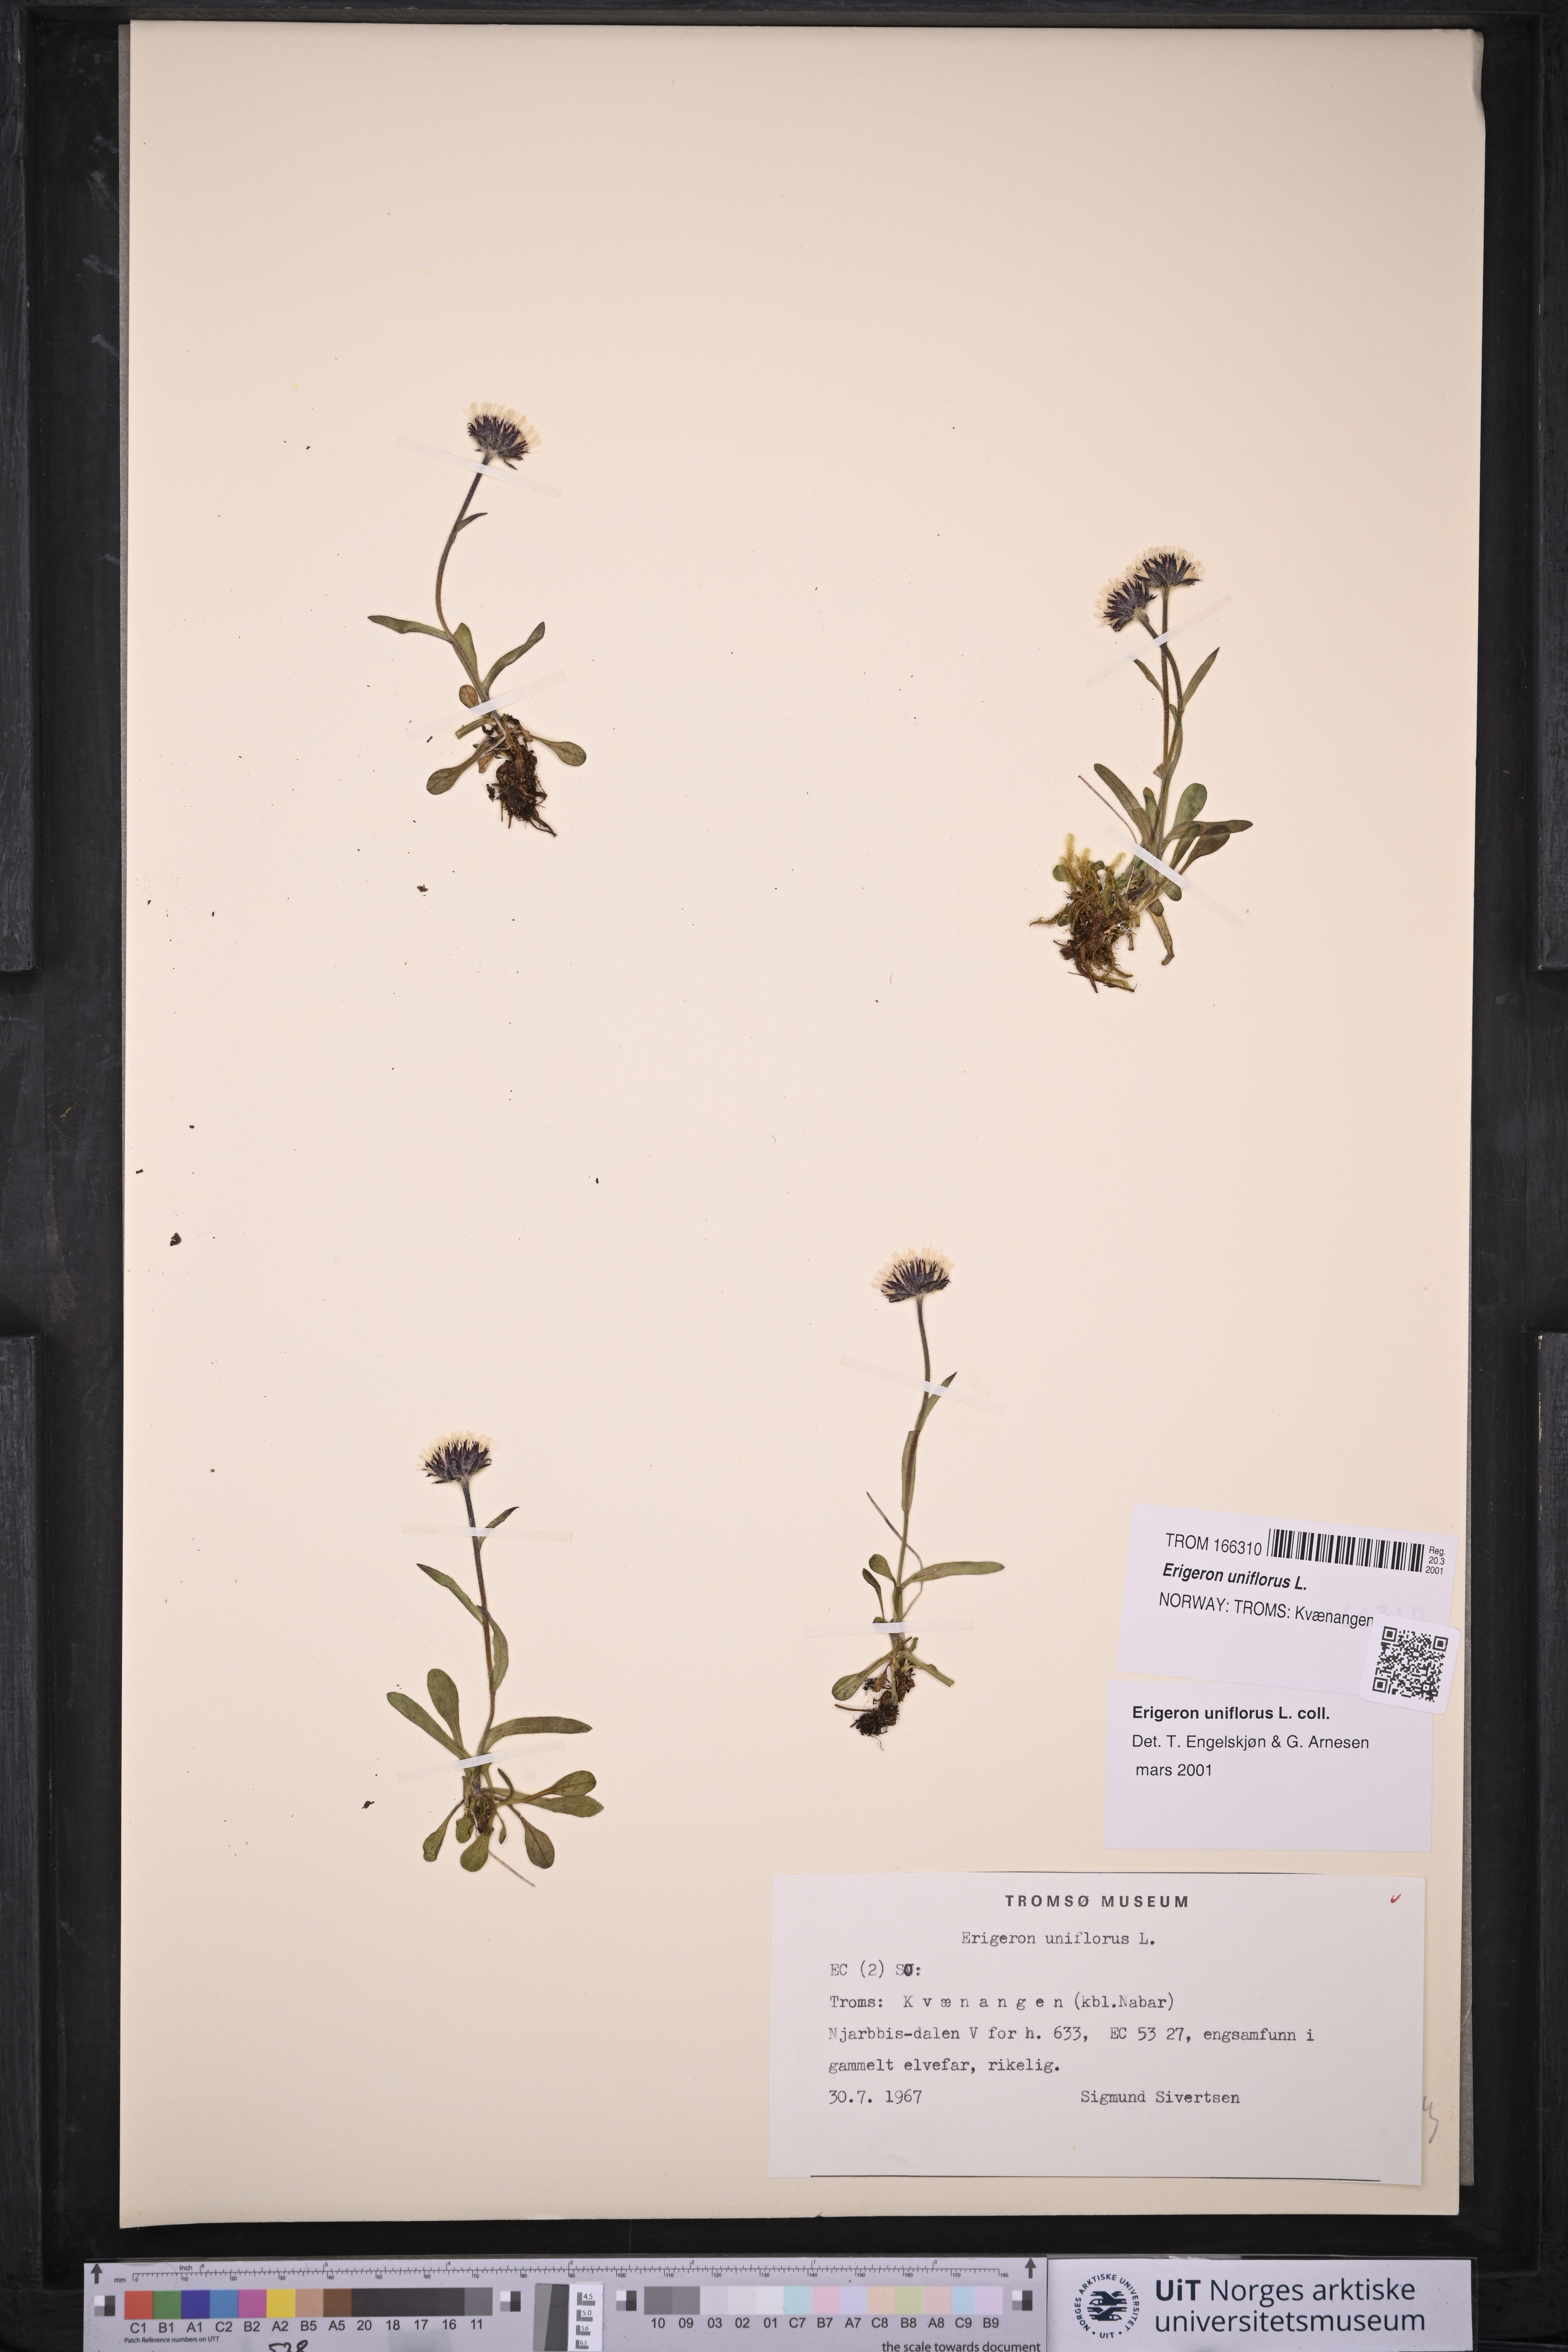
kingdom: Plantae
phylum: Tracheophyta
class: Magnoliopsida
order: Asterales
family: Asteraceae
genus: Erigeron
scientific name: Erigeron uniflorus
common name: Northern daisy
